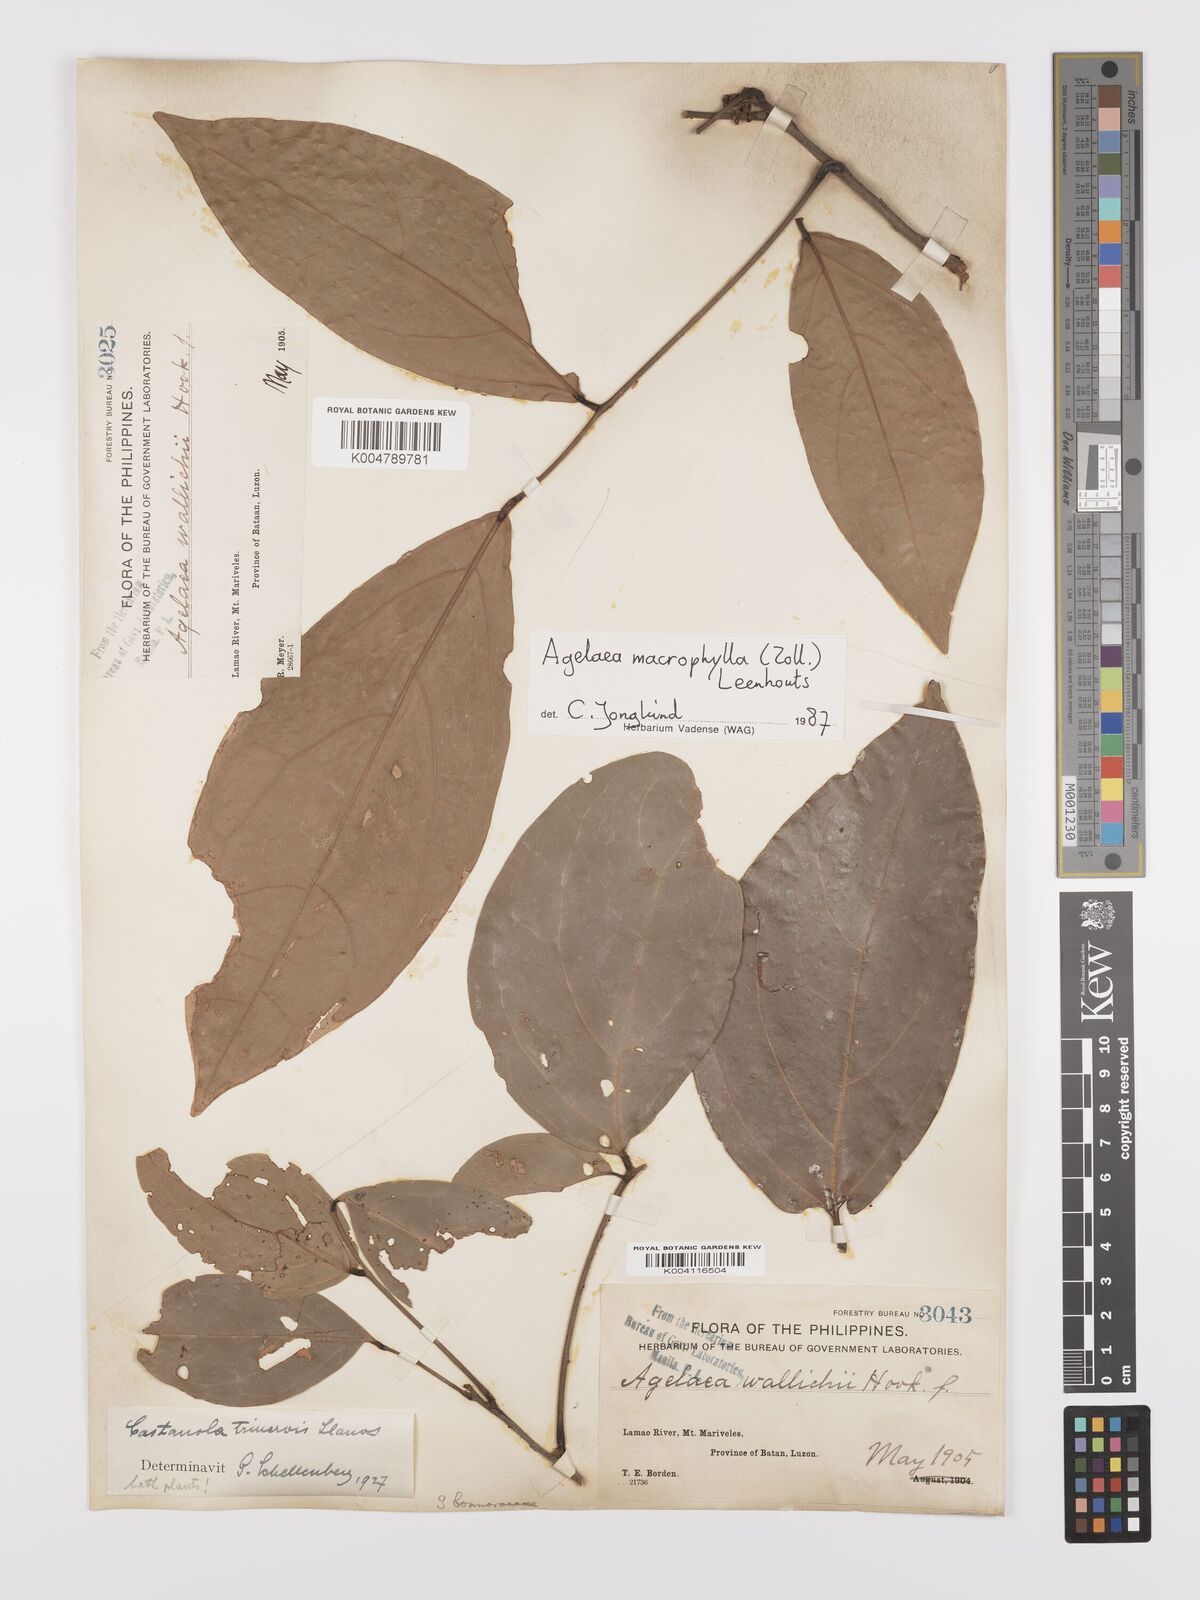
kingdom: Plantae
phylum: Tracheophyta
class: Magnoliopsida
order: Oxalidales
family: Connaraceae
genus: Agelaea
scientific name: Agelaea trinervis
